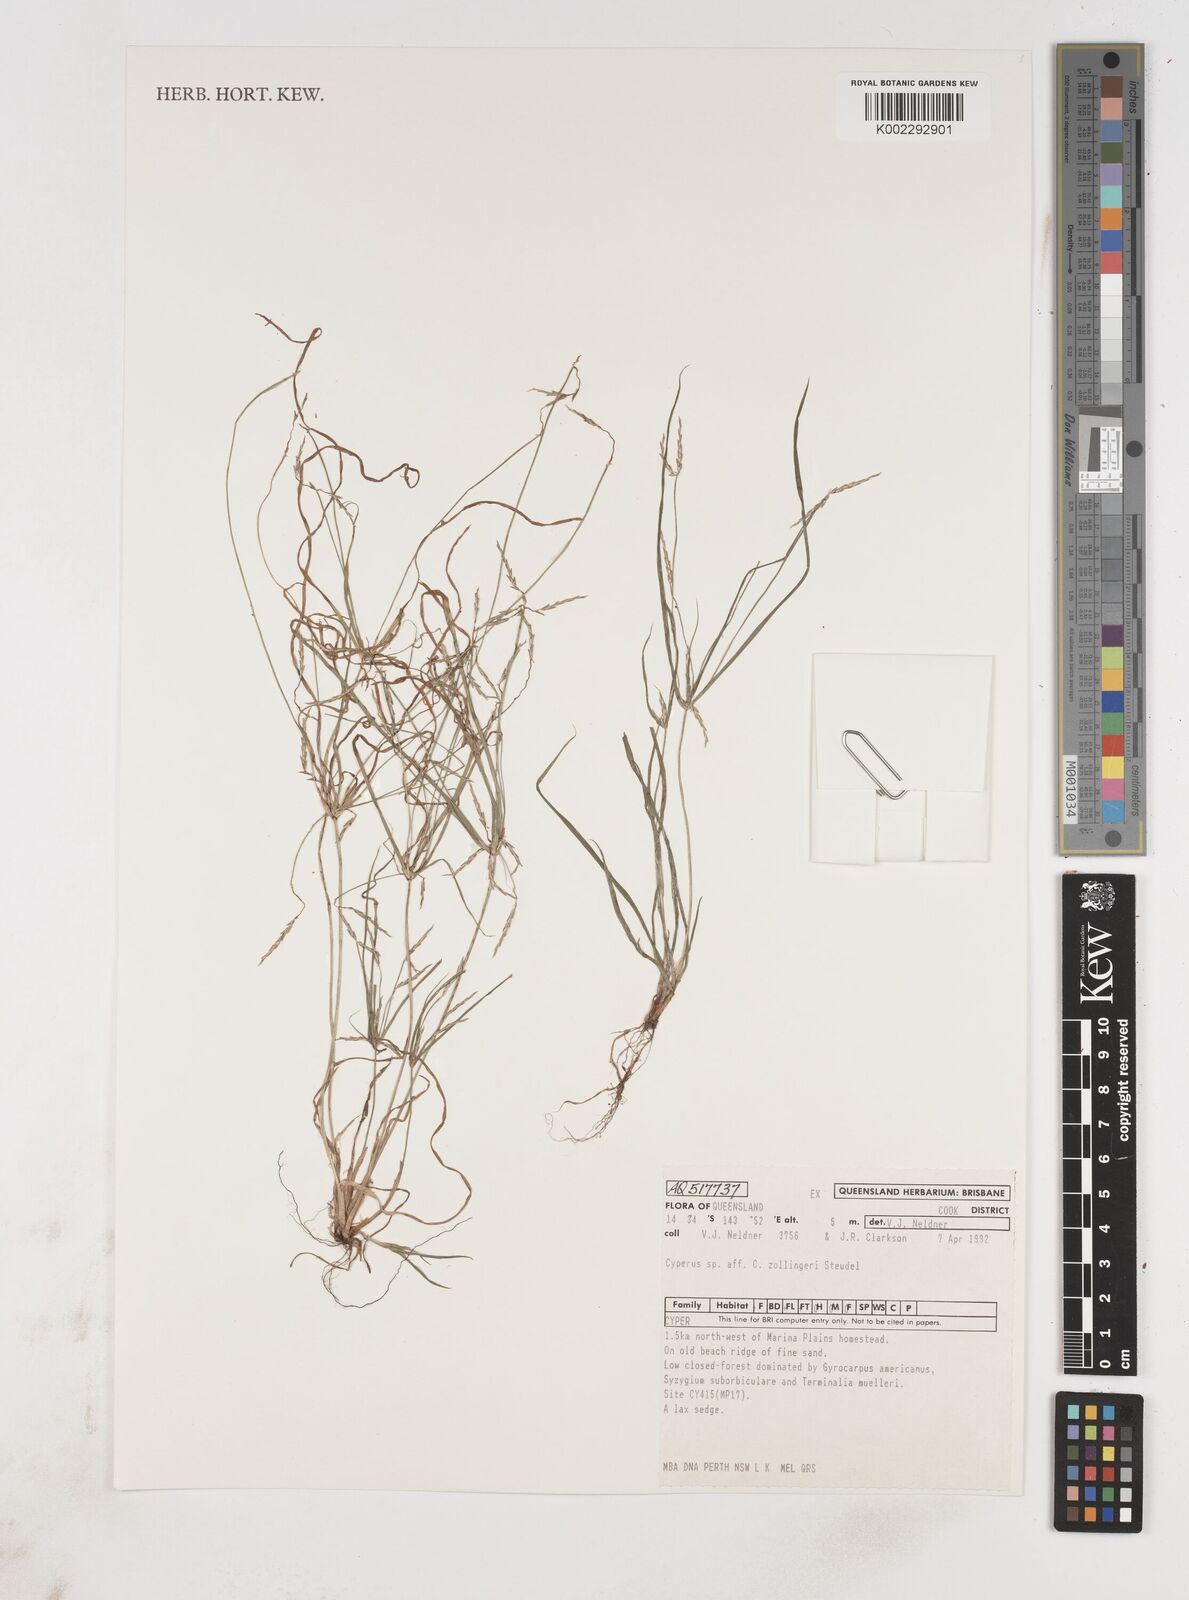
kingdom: Plantae
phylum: Tracheophyta
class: Liliopsida
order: Poales
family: Cyperaceae
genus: Cyperus
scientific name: Cyperus zollingeri
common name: Roadside flatsedge
